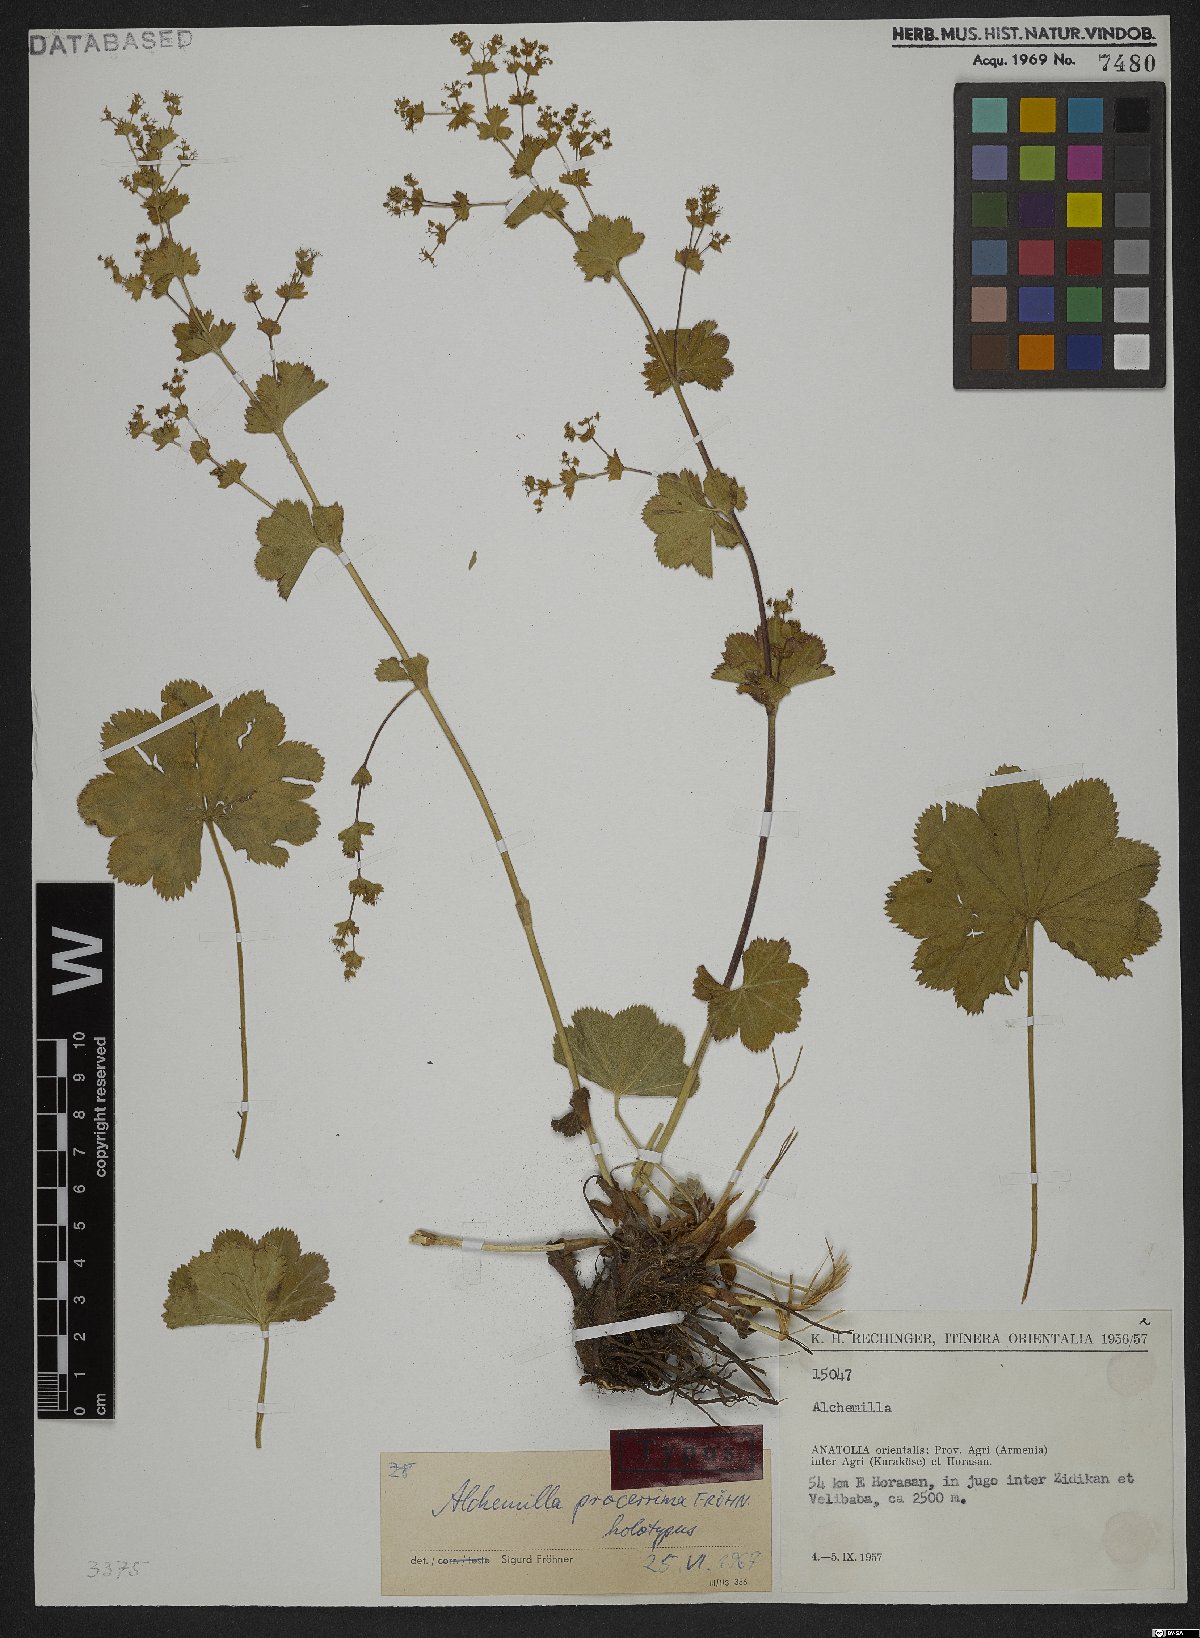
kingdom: Plantae
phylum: Tracheophyta
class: Magnoliopsida
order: Rosales
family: Rosaceae
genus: Alchemilla
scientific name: Alchemilla procerrima
